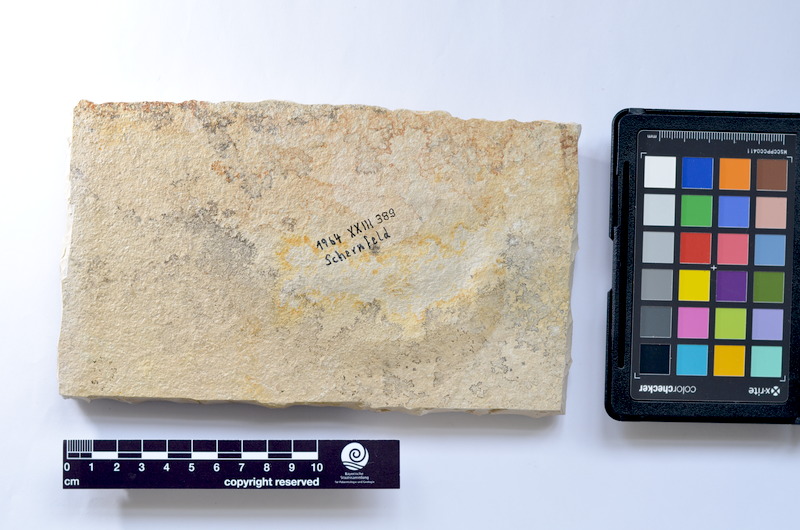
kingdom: Animalia
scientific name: Animalia
